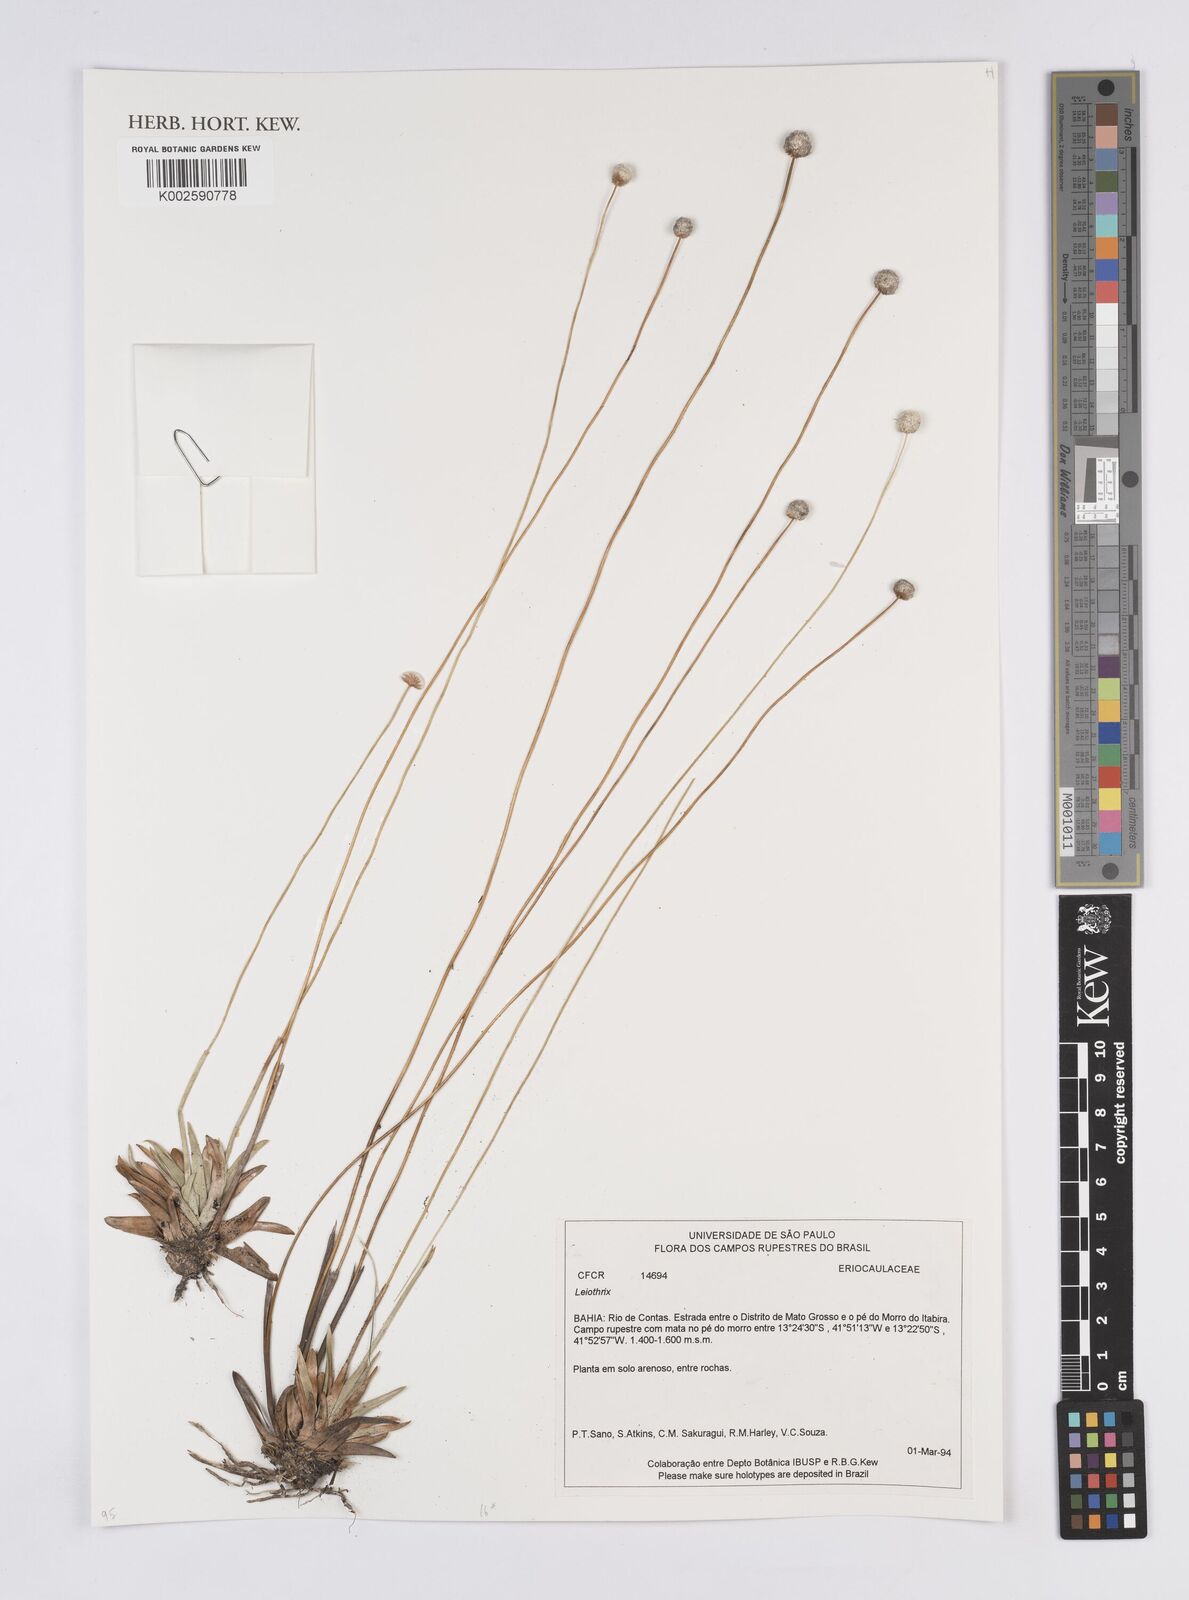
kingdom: Plantae
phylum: Tracheophyta
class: Liliopsida
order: Poales
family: Eriocaulaceae
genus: Leiothrix
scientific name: Leiothrix
